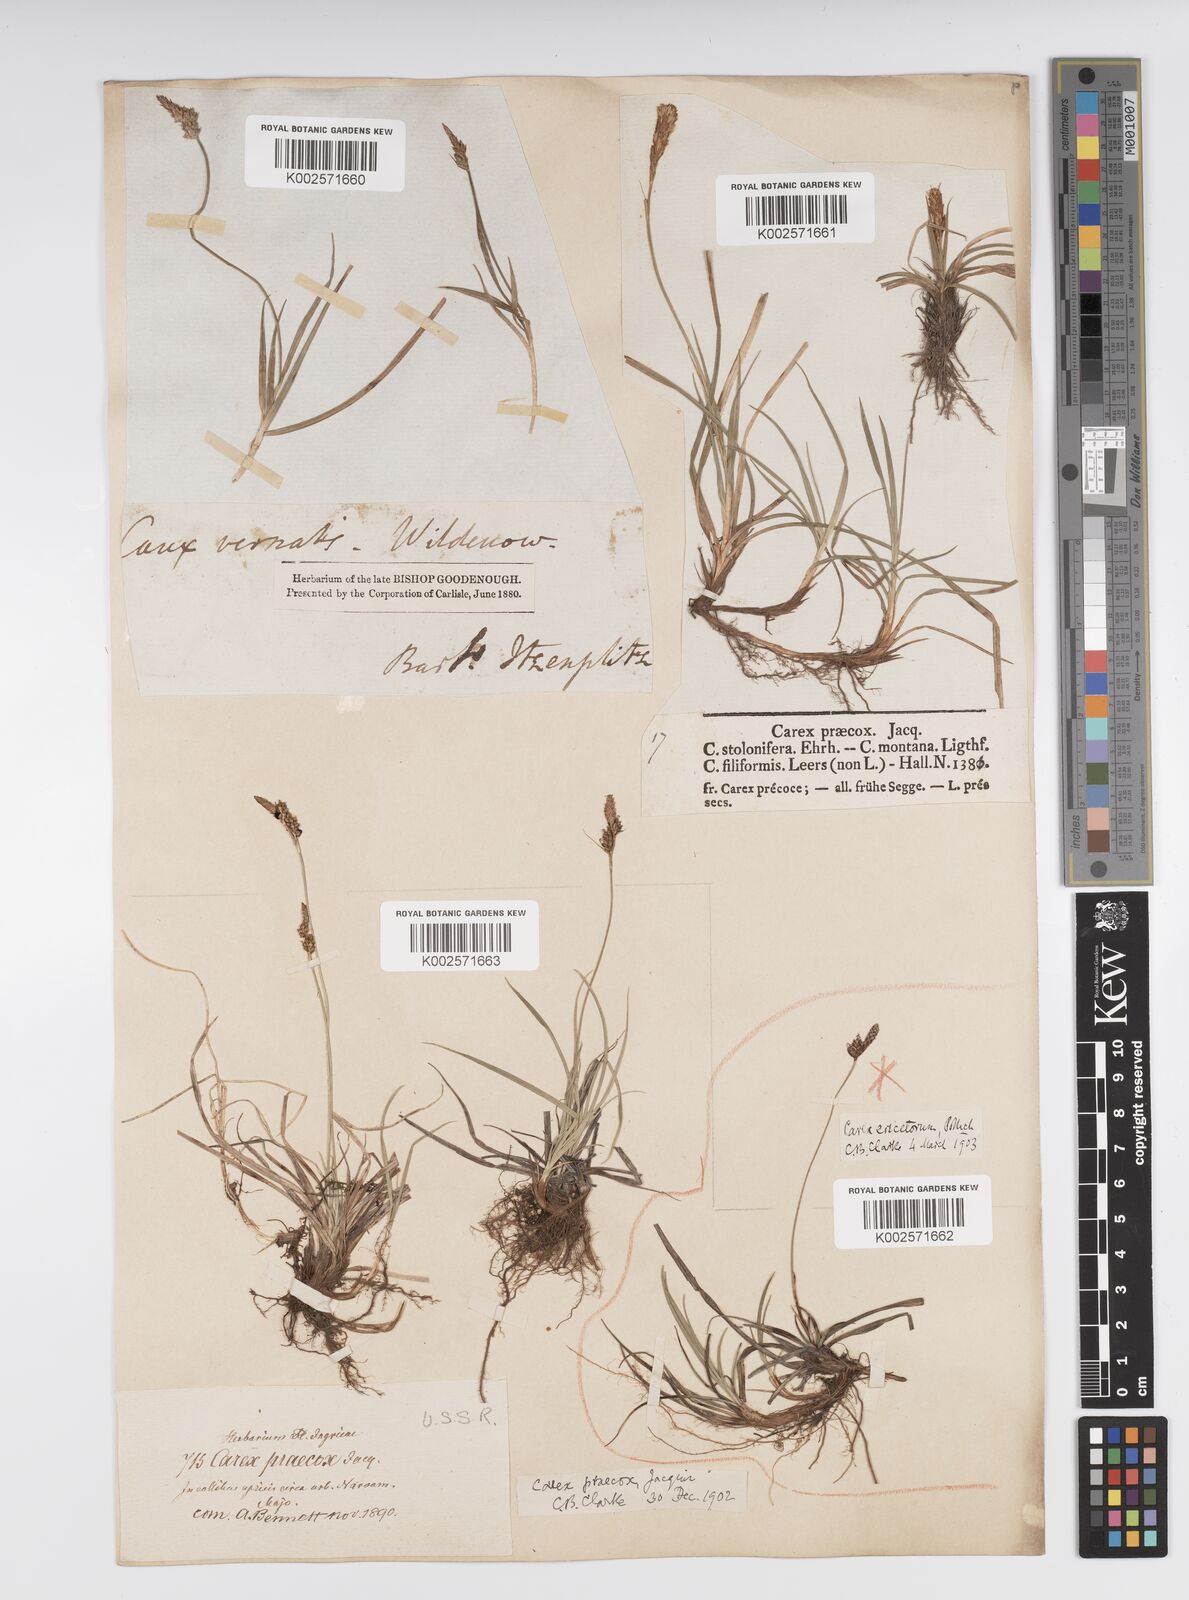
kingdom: Plantae
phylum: Tracheophyta
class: Liliopsida
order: Poales
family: Cyperaceae
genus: Carex
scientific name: Carex caryophyllea
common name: Spring sedge
